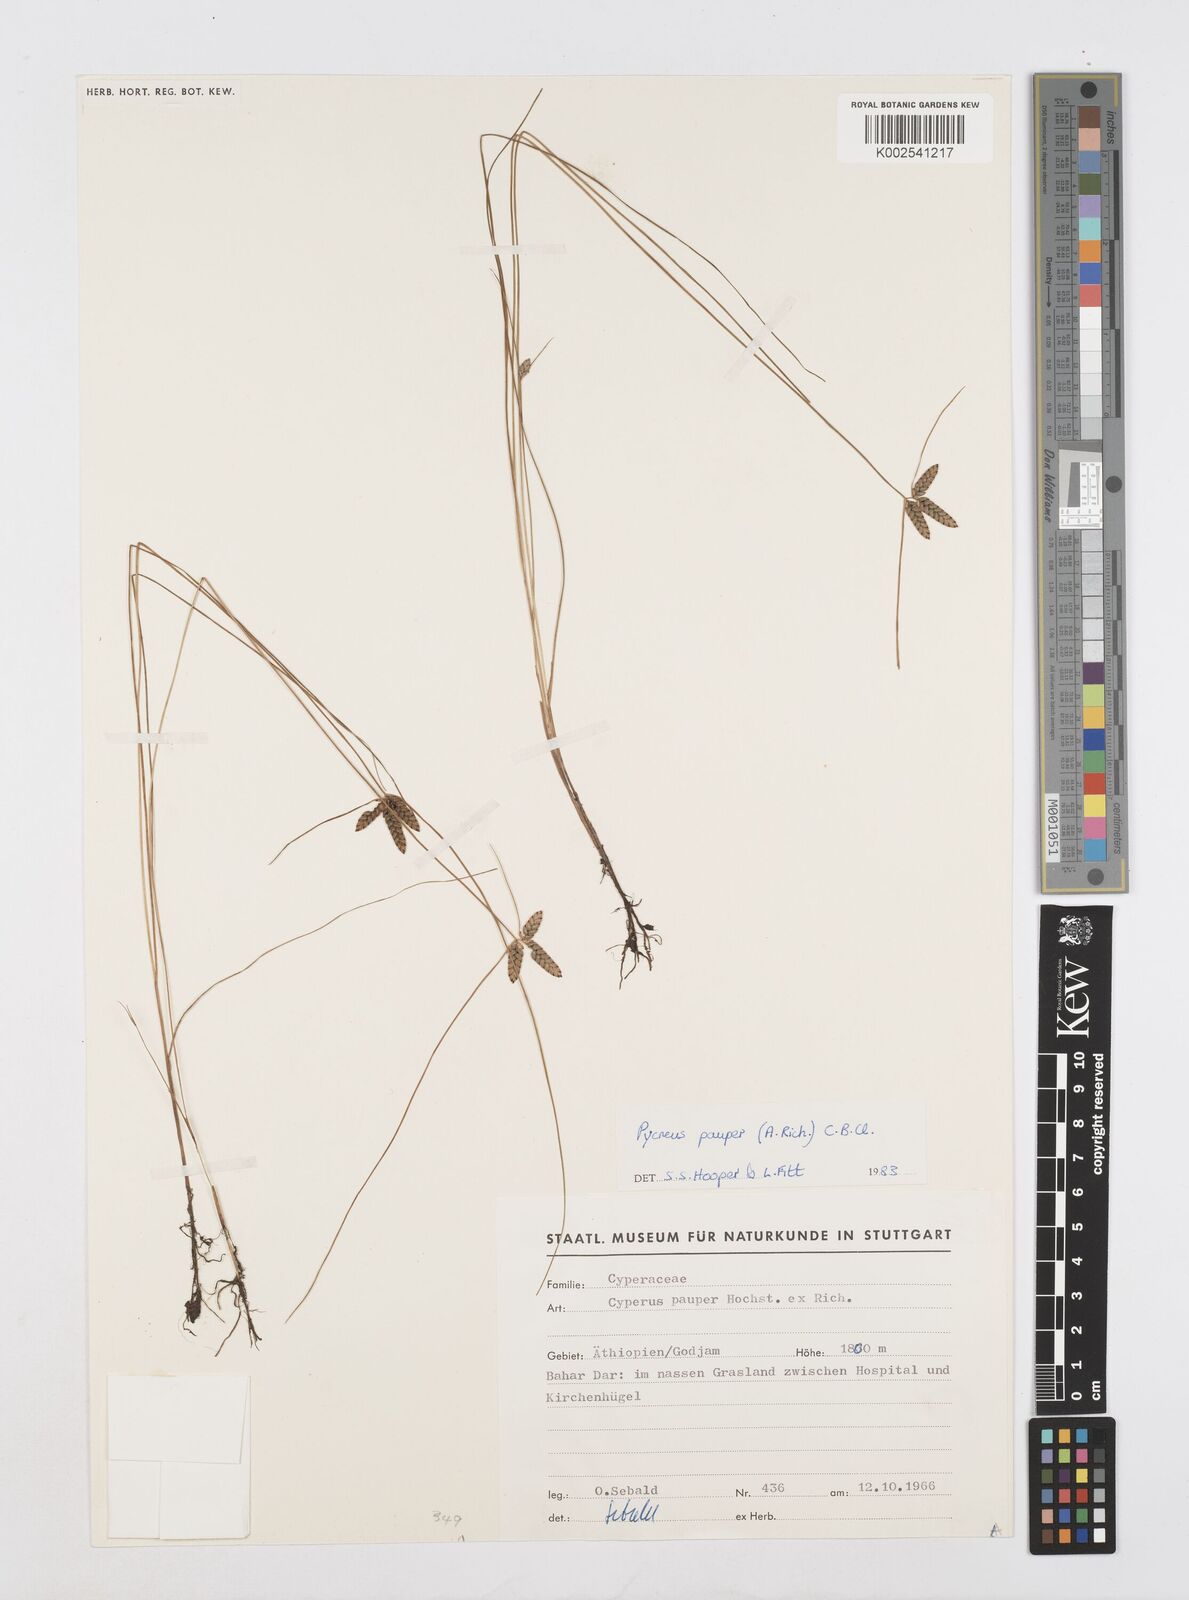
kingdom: Plantae
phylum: Tracheophyta
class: Liliopsida
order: Poales
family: Cyperaceae
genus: Cyperus
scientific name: Cyperus pauper
